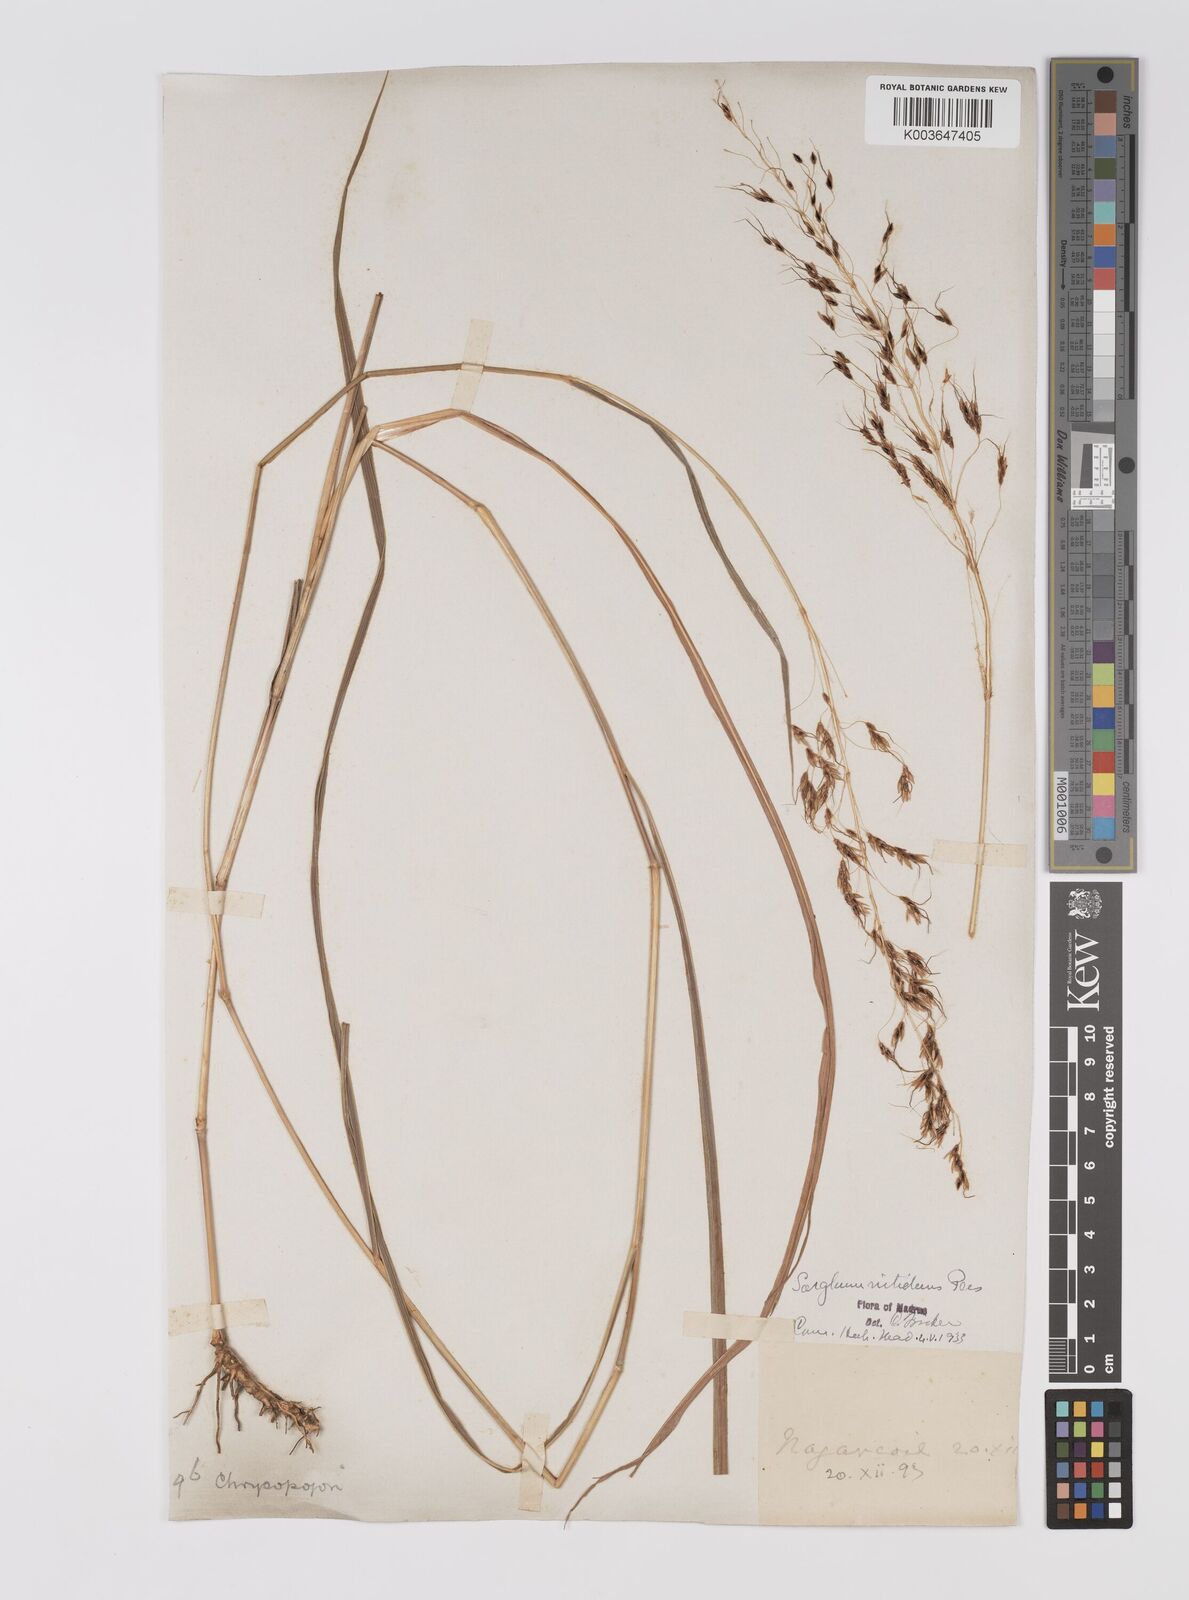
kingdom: Plantae
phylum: Tracheophyta
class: Liliopsida
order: Poales
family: Poaceae
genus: Sorghum
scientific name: Sorghum nitidum
